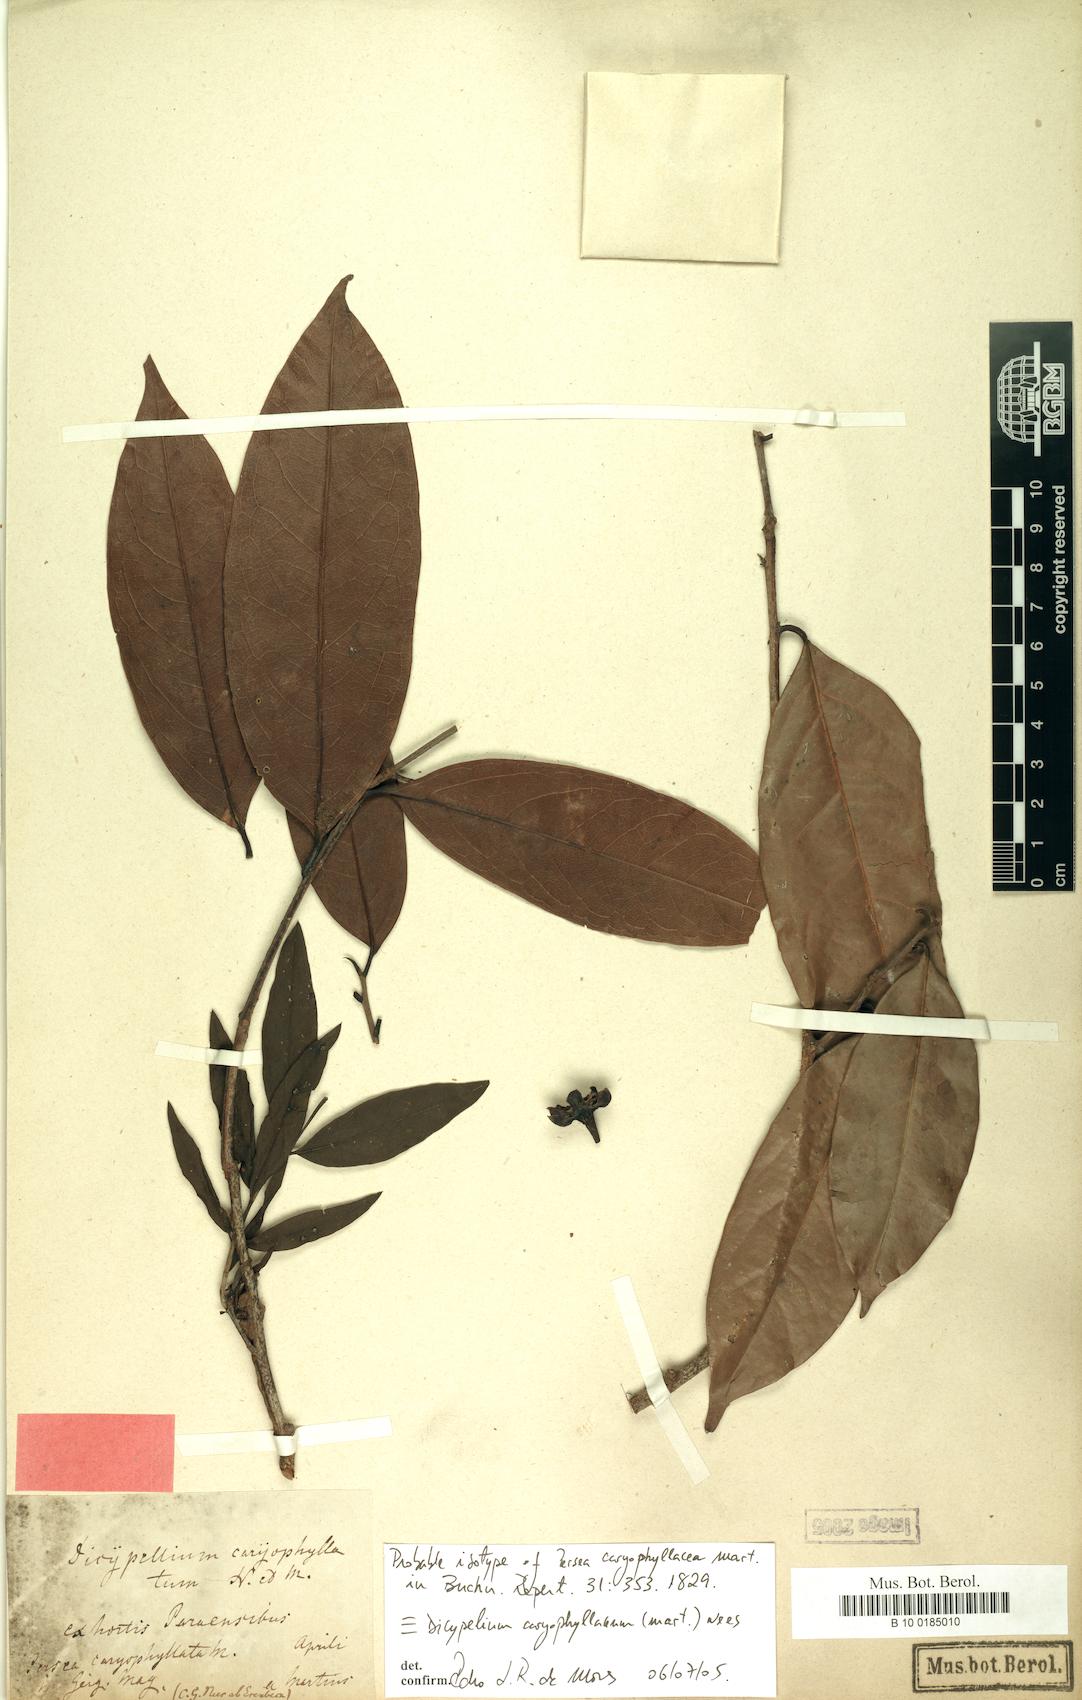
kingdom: Plantae
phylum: Tracheophyta
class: Magnoliopsida
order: Laurales
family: Lauraceae
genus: Dicypellium
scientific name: Dicypellium caryophyllaceum
